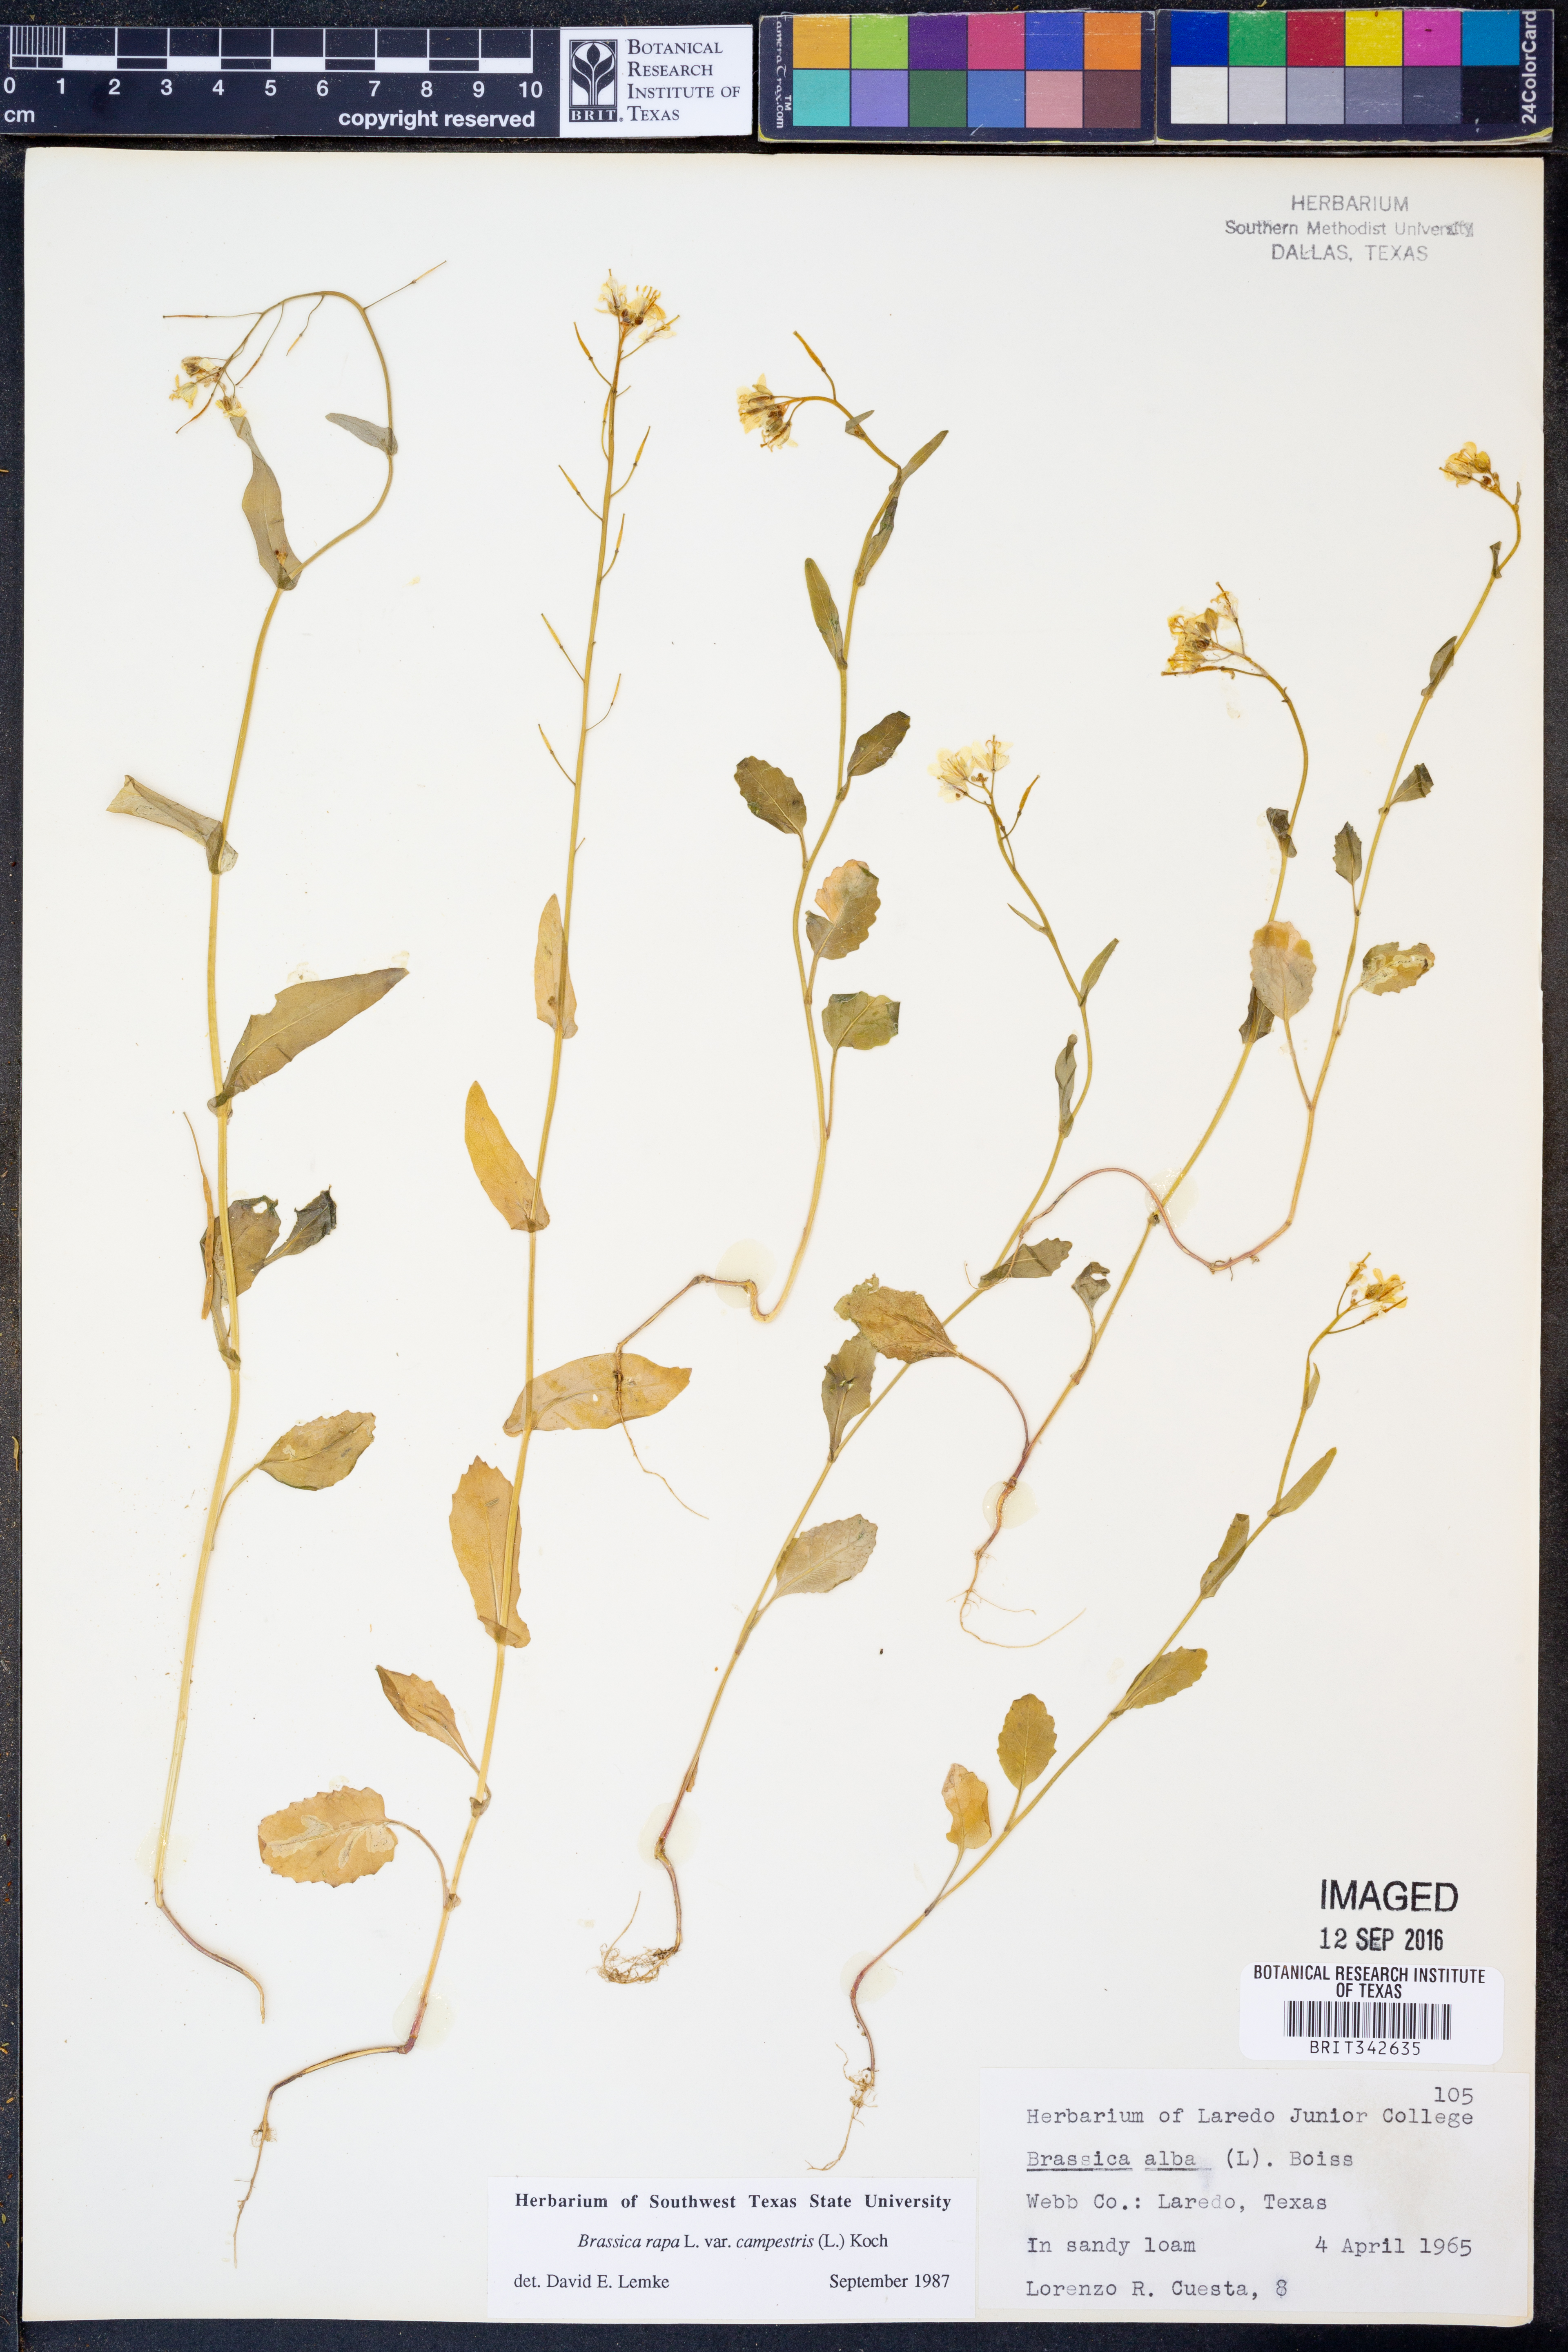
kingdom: Plantae
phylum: Tracheophyta
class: Magnoliopsida
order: Brassicales
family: Brassicaceae
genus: Brassica
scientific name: Brassica rapa
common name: Field mustard
